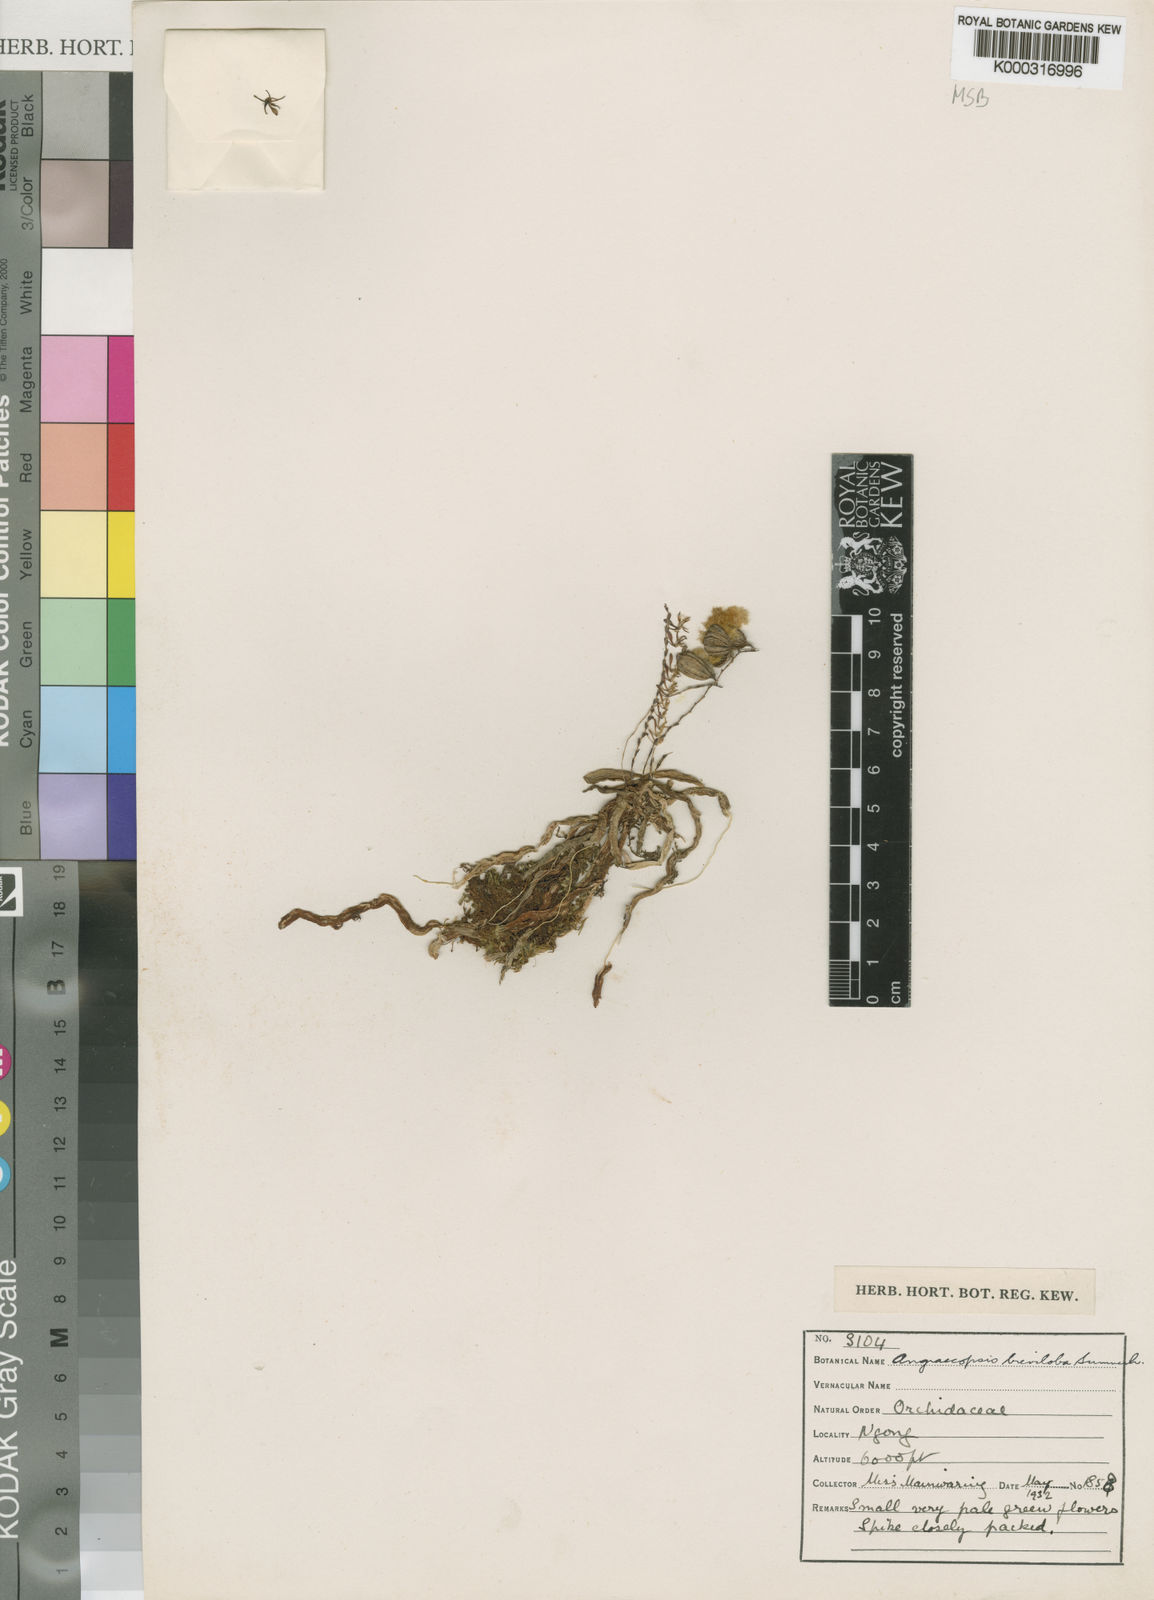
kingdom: Plantae
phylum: Tracheophyta
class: Liliopsida
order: Asparagales
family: Orchidaceae
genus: Sphyrarhynchus
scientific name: Sphyrarhynchus brevilobus
